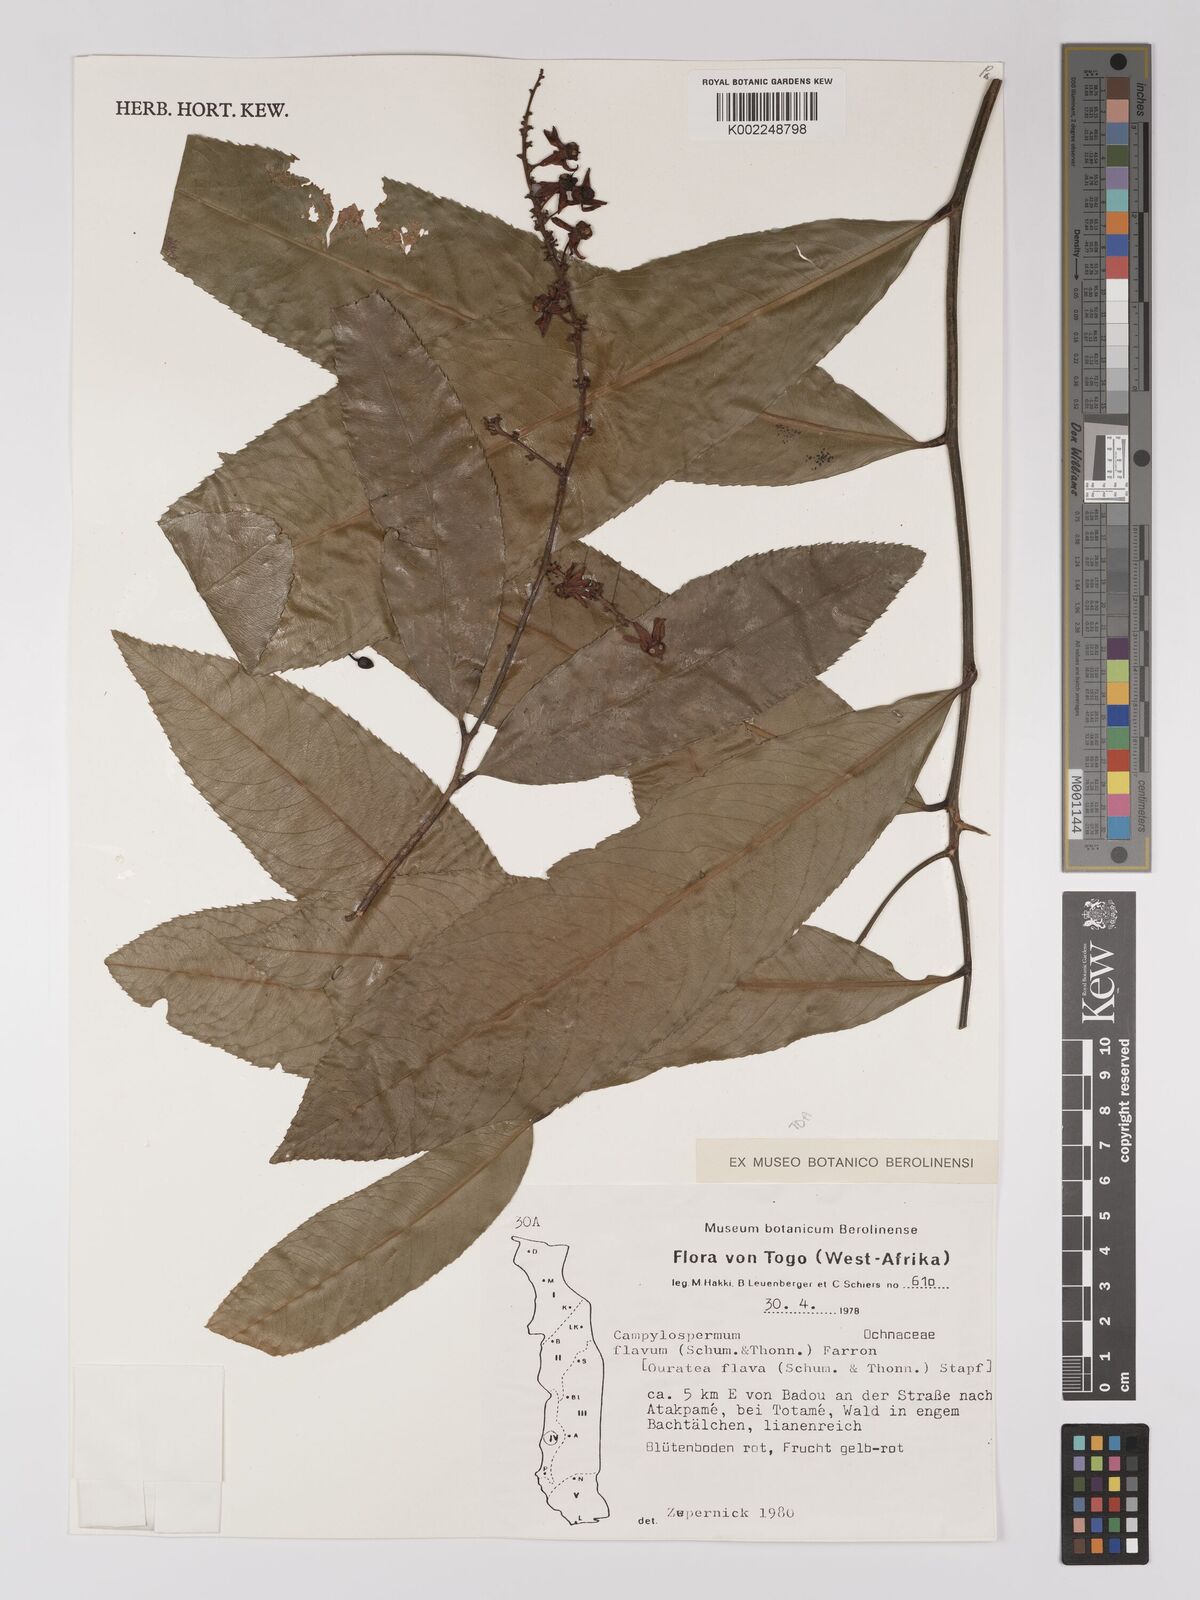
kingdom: Plantae
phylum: Tracheophyta
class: Magnoliopsida
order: Malpighiales
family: Ochnaceae
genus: Campylospermum
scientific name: Campylospermum flavum
